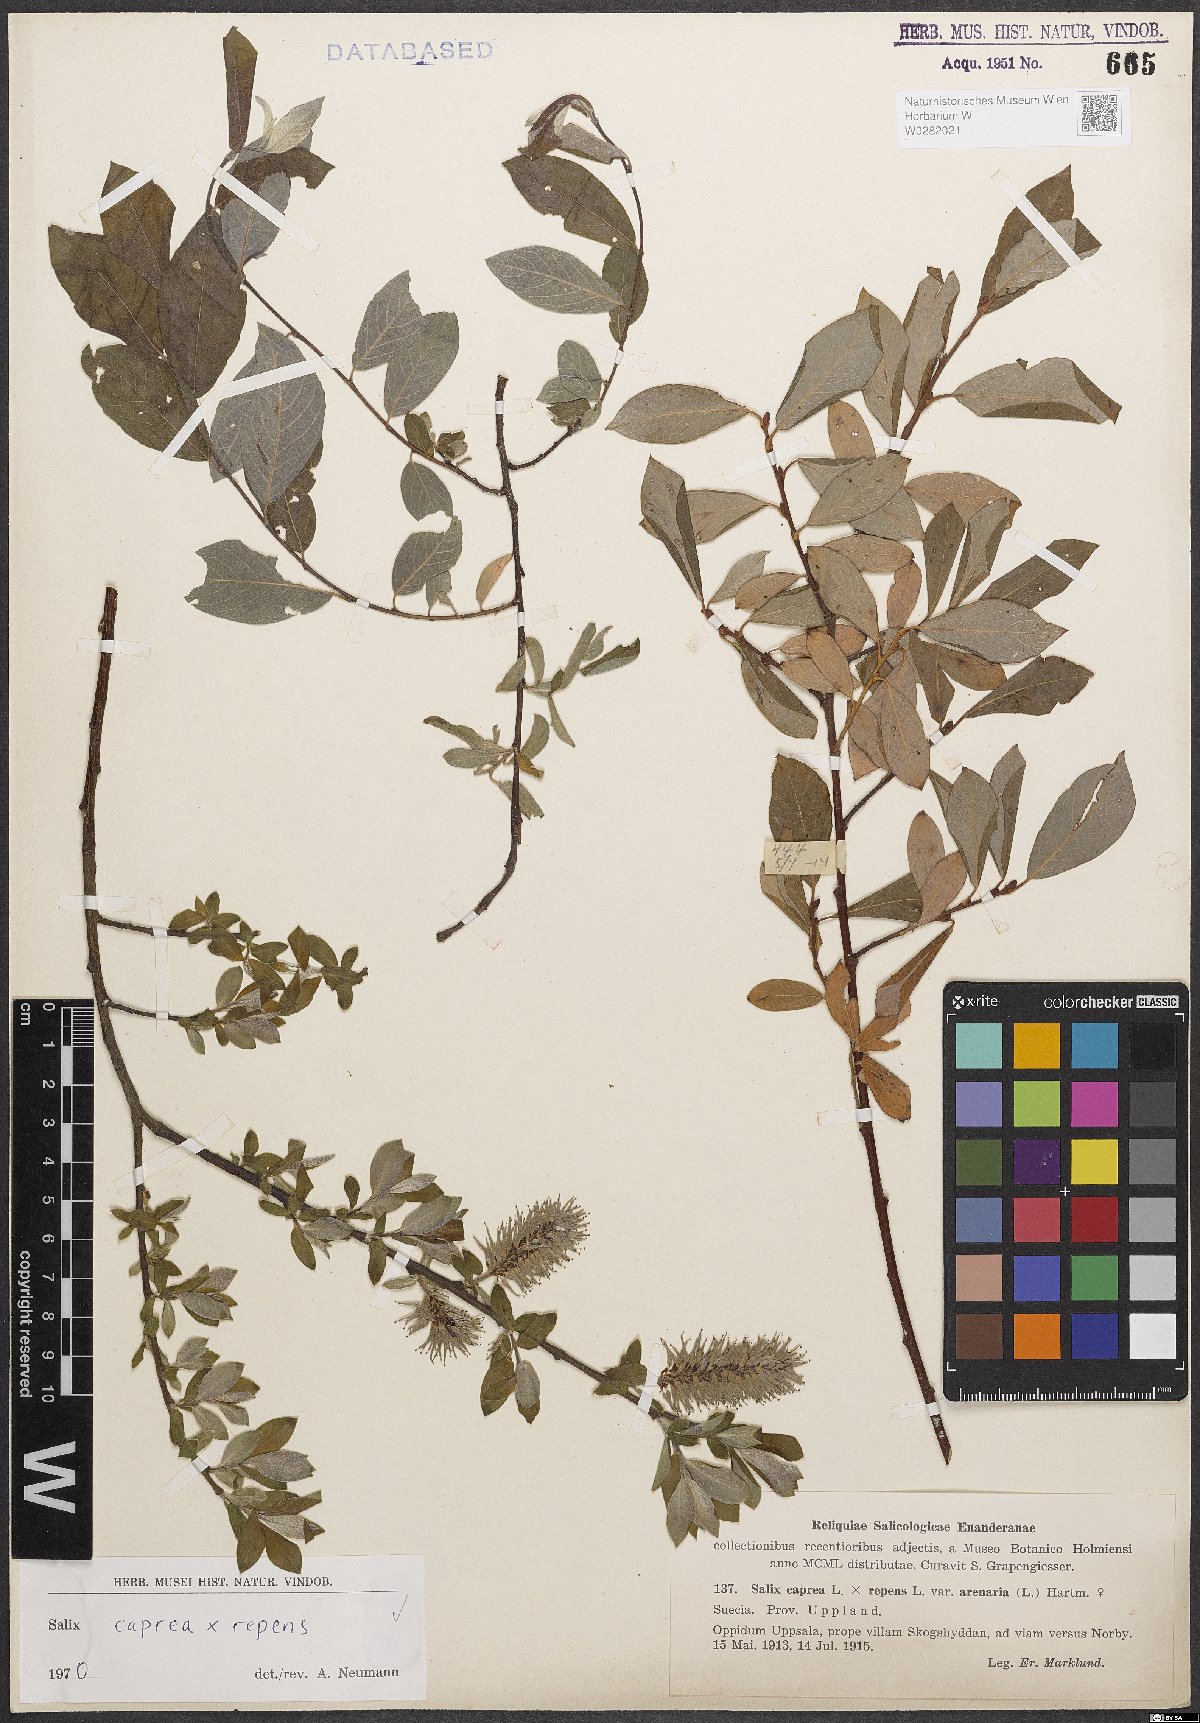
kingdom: Plantae
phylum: Tracheophyta
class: Magnoliopsida
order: Malpighiales
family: Salicaceae
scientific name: Salicaceae
